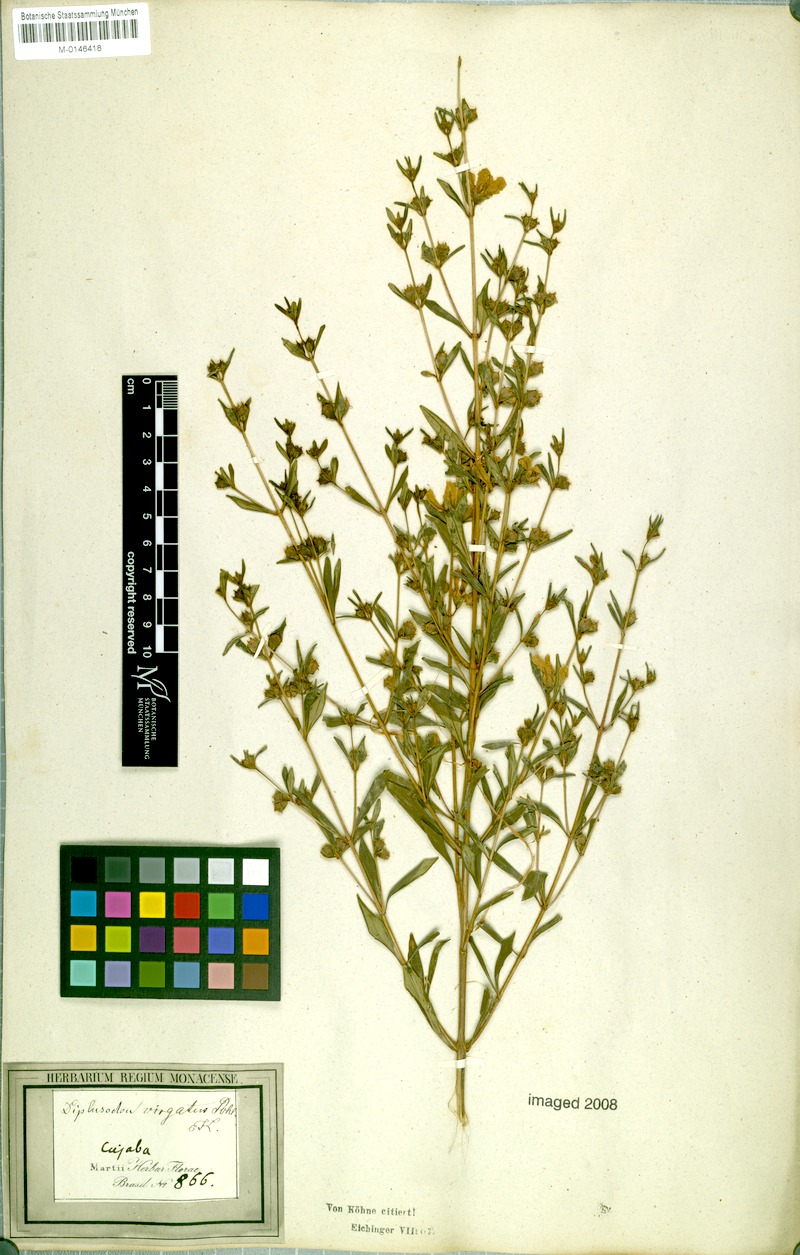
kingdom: Plantae
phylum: Tracheophyta
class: Magnoliopsida
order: Myrtales
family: Lythraceae
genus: Diplusodon
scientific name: Diplusodon virgatus
